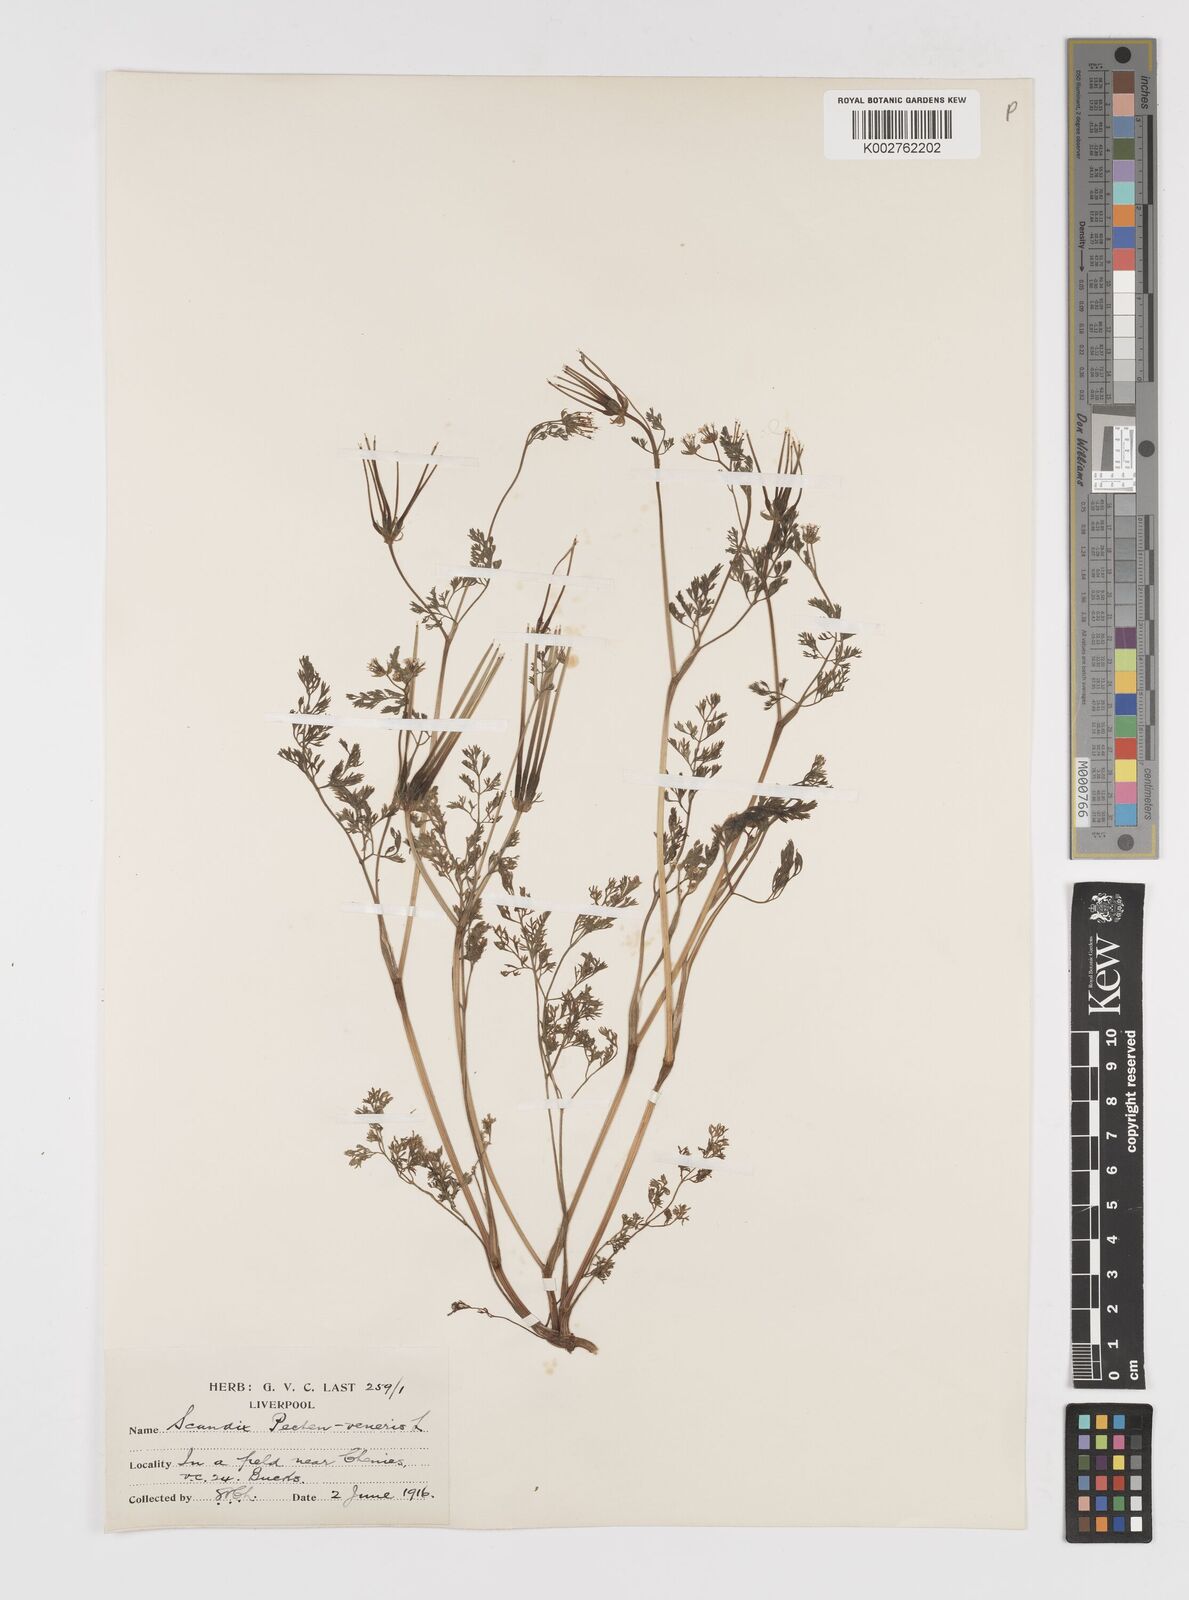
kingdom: Plantae
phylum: Tracheophyta
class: Magnoliopsida
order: Apiales
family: Apiaceae
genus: Scandix
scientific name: Scandix pecten-veneris
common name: Shepherd's-needle
